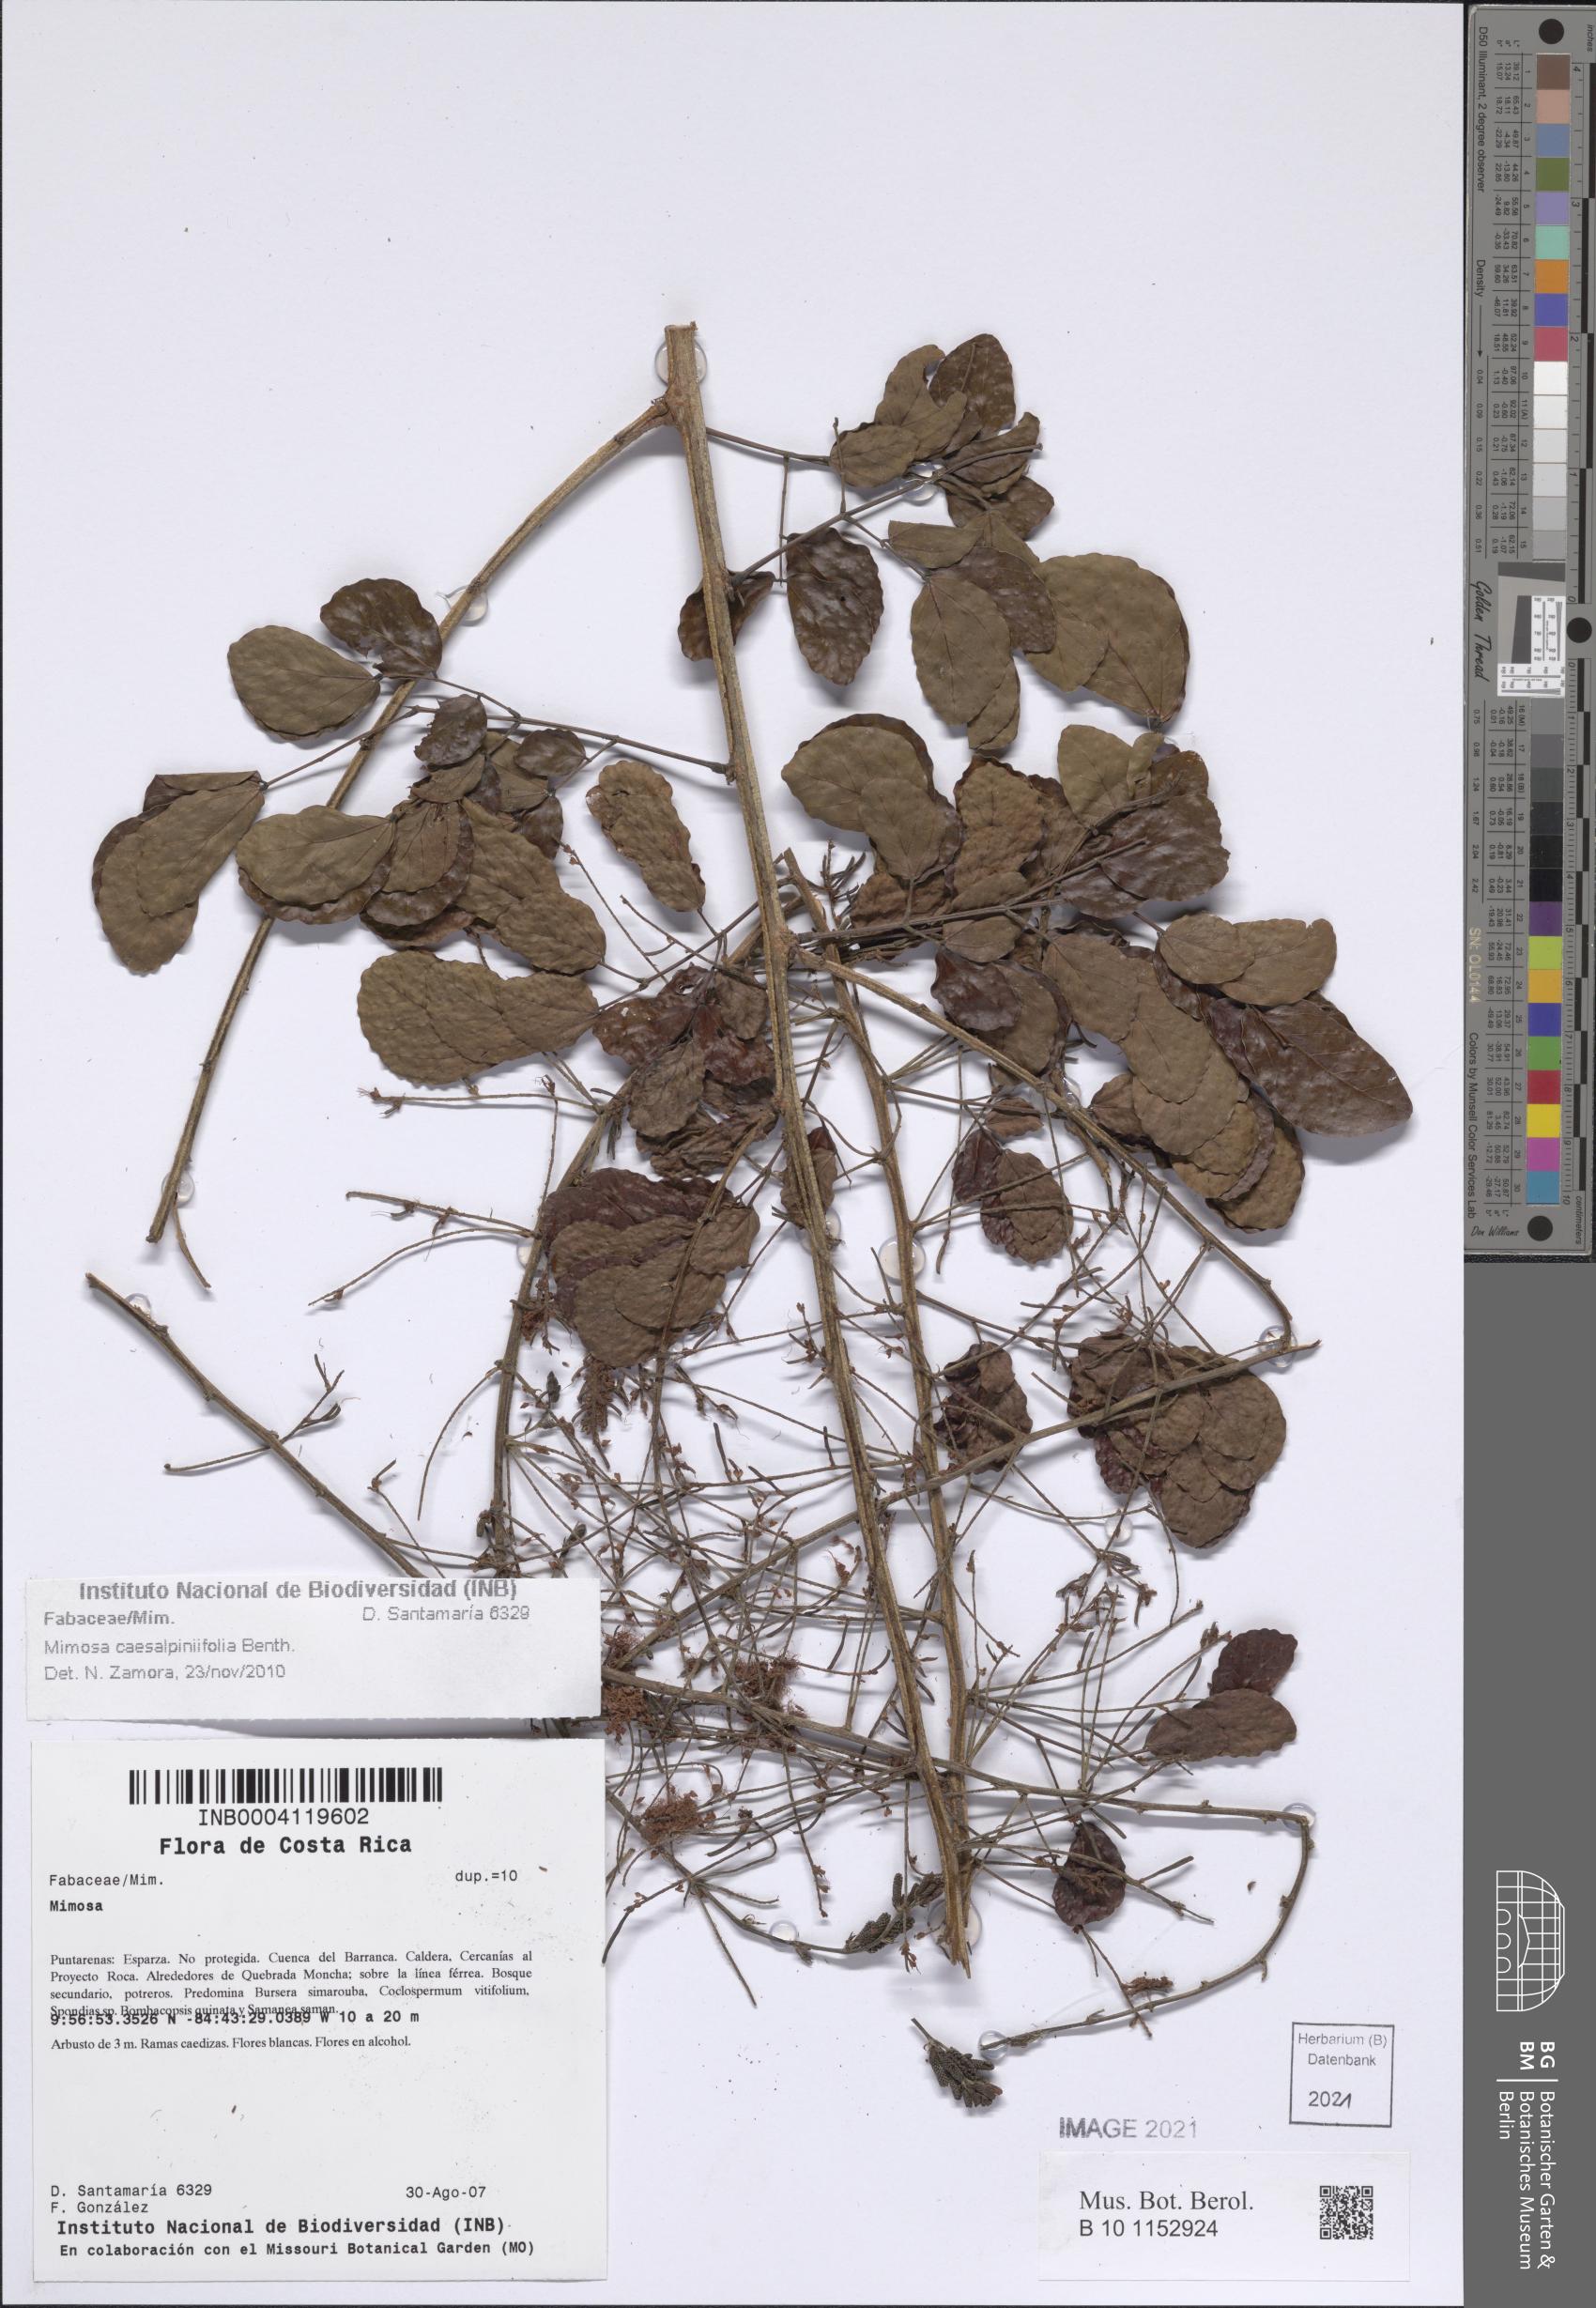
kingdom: Plantae
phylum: Tracheophyta
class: Magnoliopsida
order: Fabales
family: Fabaceae
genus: Mimosa
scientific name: Mimosa caesalpiniifolia
